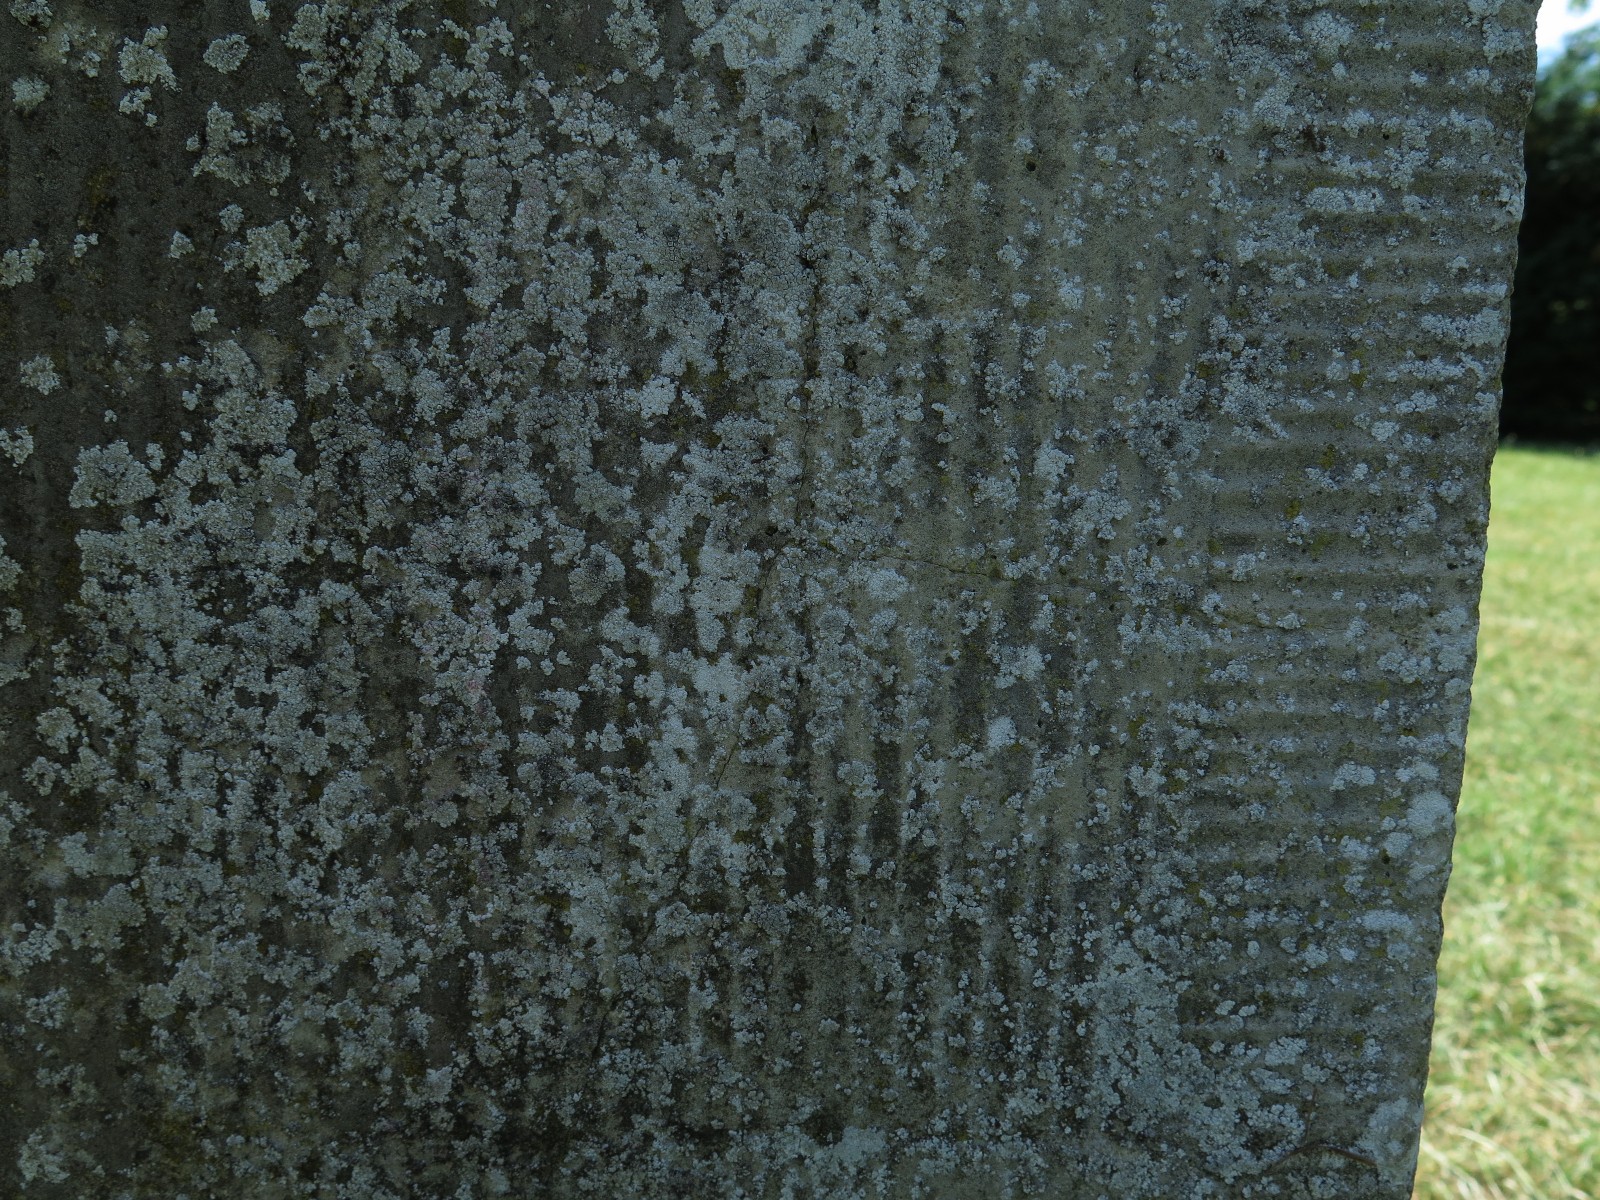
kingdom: Fungi
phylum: Ascomycota
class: Lecanoromycetes
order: Lecanorales
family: Lecanoraceae
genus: Polyozosia
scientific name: Polyozosia albescens
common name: cement-kantskivelav
